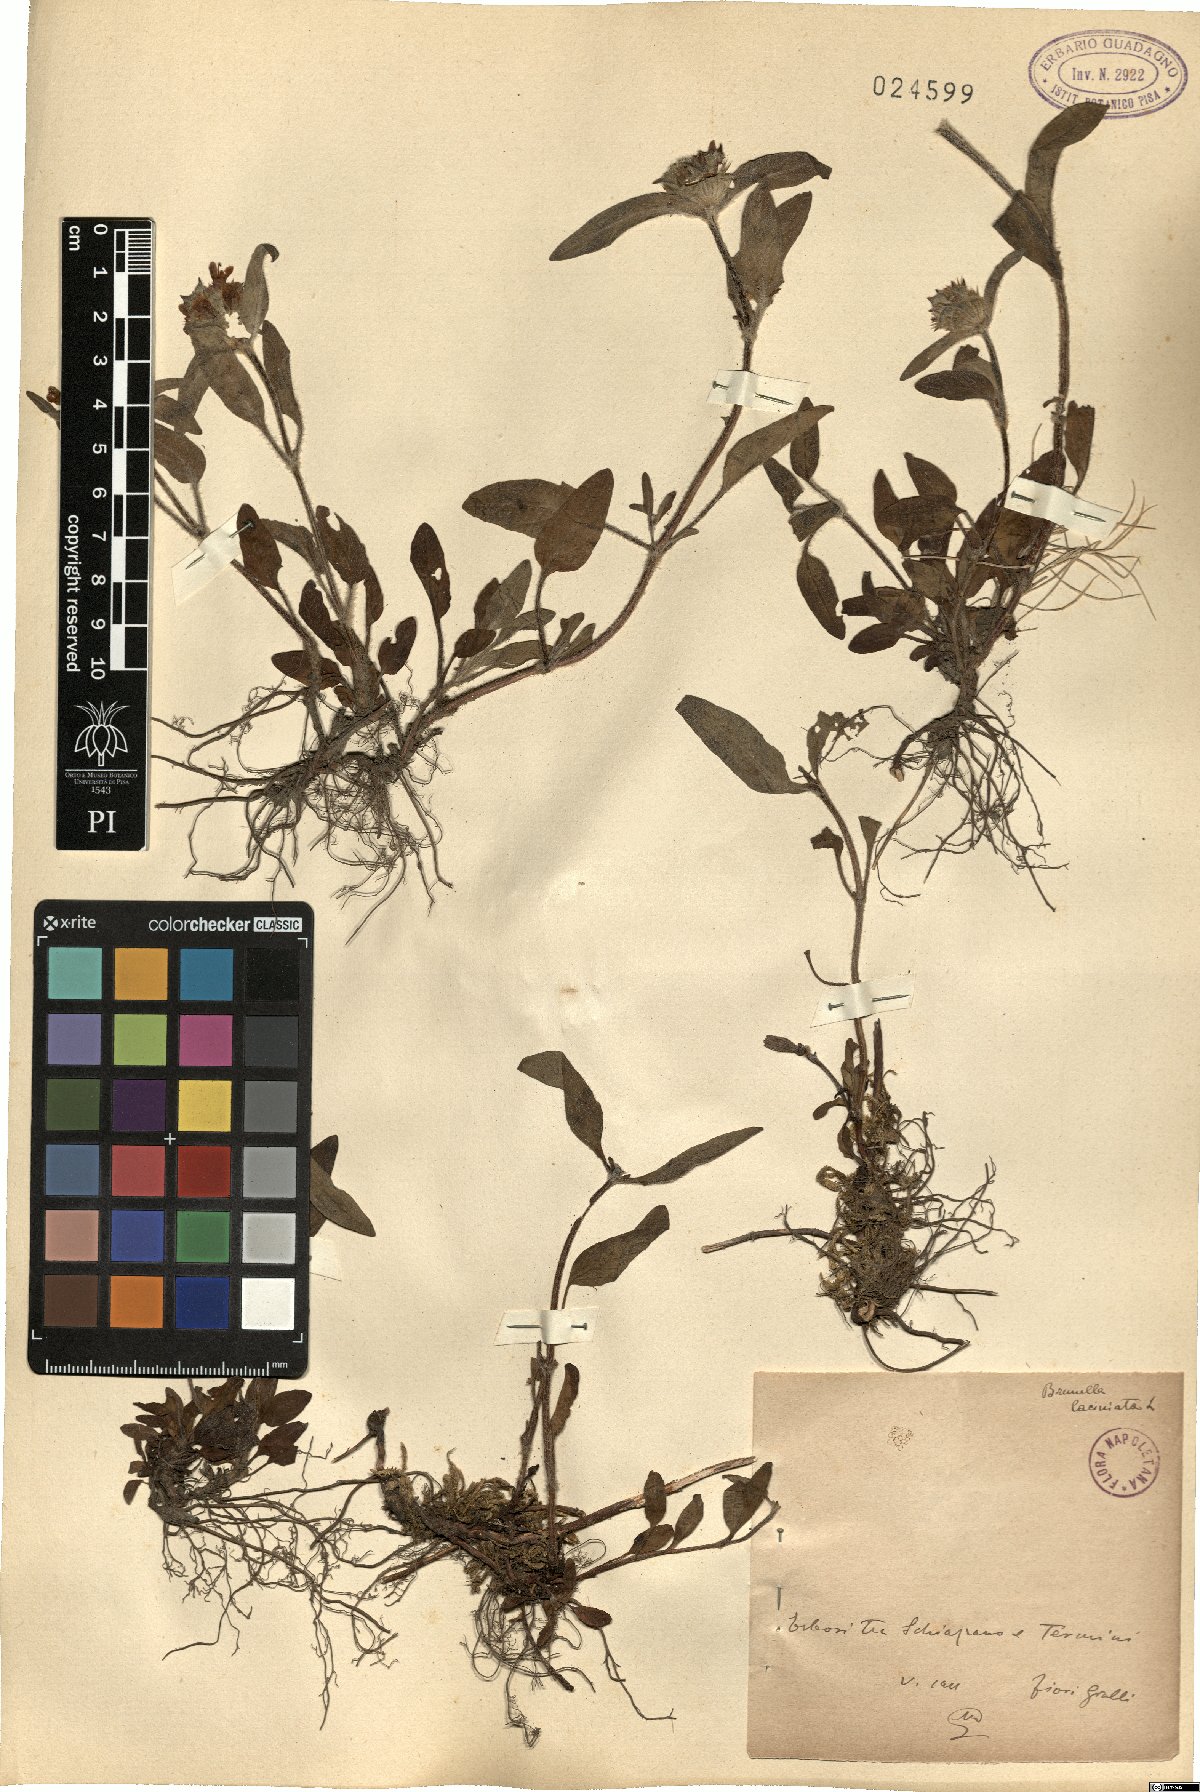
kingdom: Plantae
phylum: Tracheophyta
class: Magnoliopsida
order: Lamiales
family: Lamiaceae
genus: Prunella
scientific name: Prunella laciniata
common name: Cut-leaved selfheal
